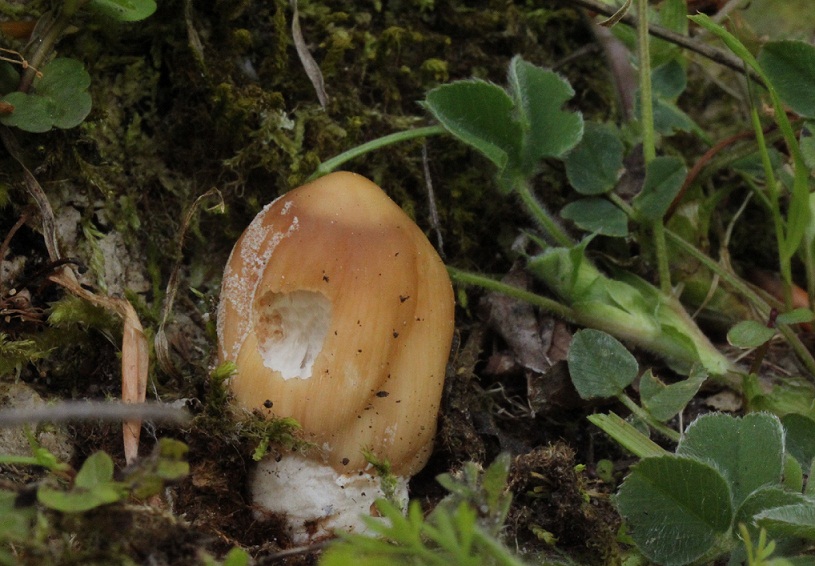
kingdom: Fungi
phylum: Basidiomycota
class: Agaricomycetes
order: Agaricales
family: Psathyrellaceae
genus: Coprinellus
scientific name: Coprinellus domesticus
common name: hus-blækhat
